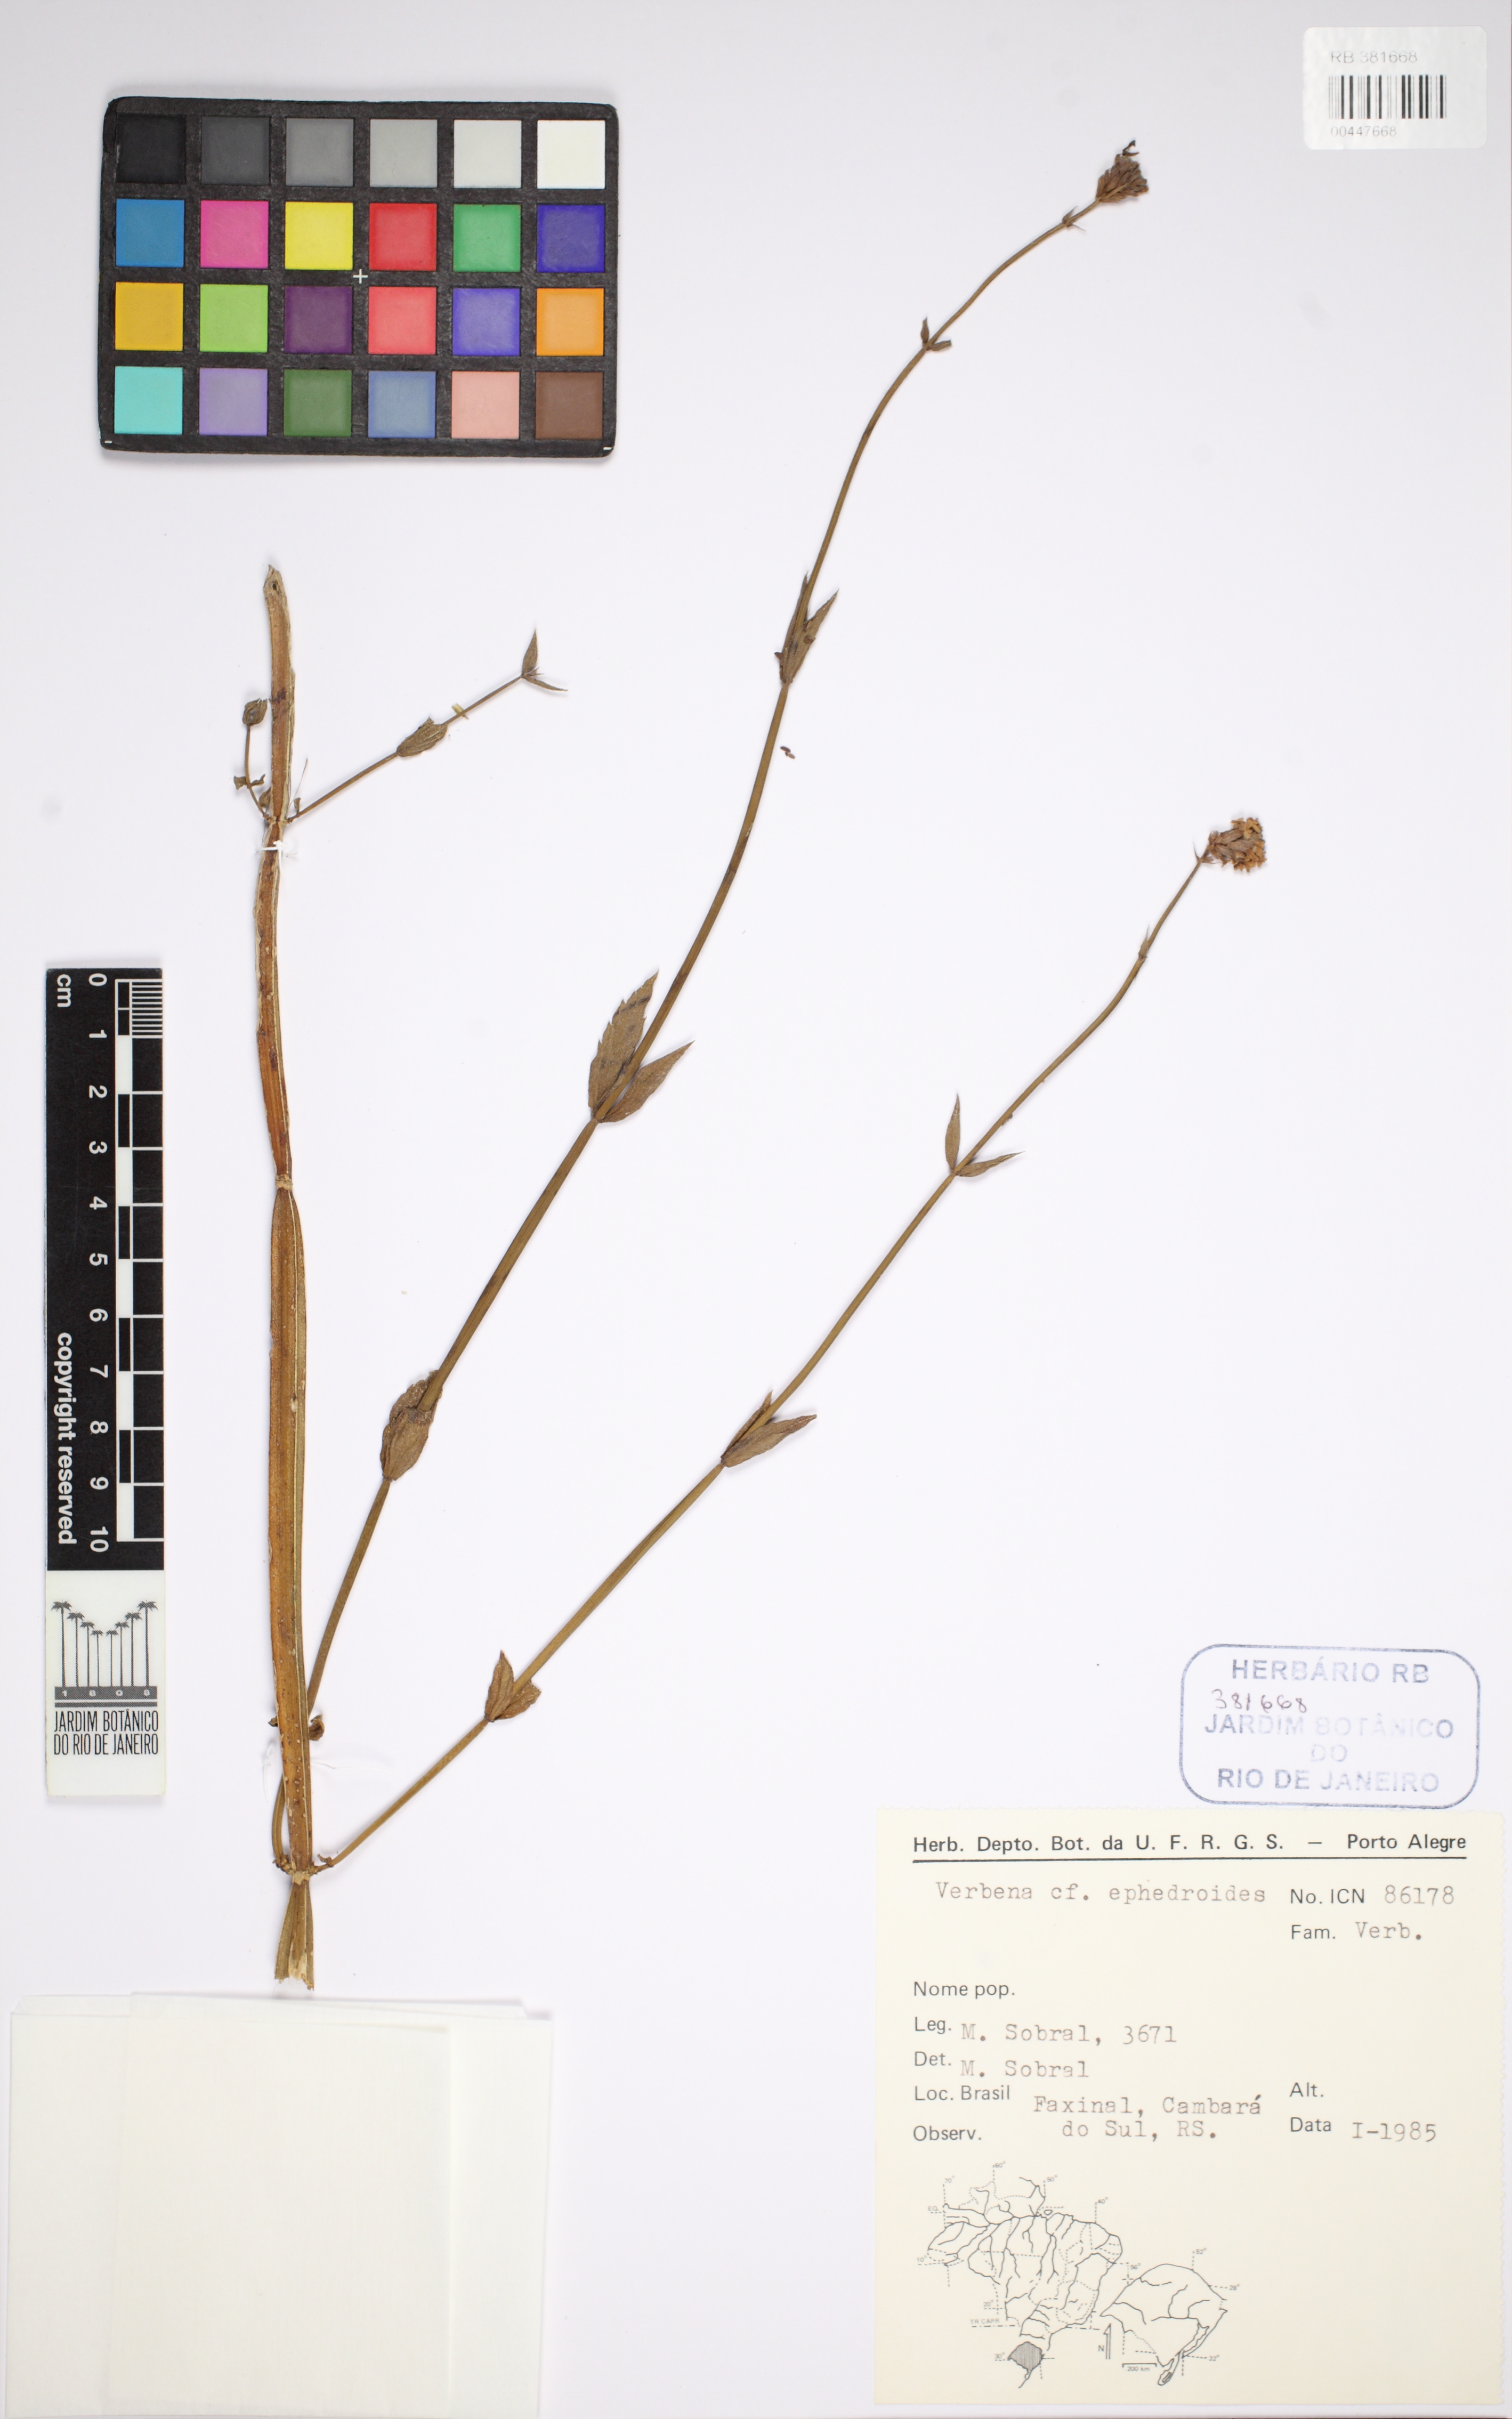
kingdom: Plantae
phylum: Tracheophyta
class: Magnoliopsida
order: Lamiales
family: Verbenaceae
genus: Verbena
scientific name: Verbena ephedroides
